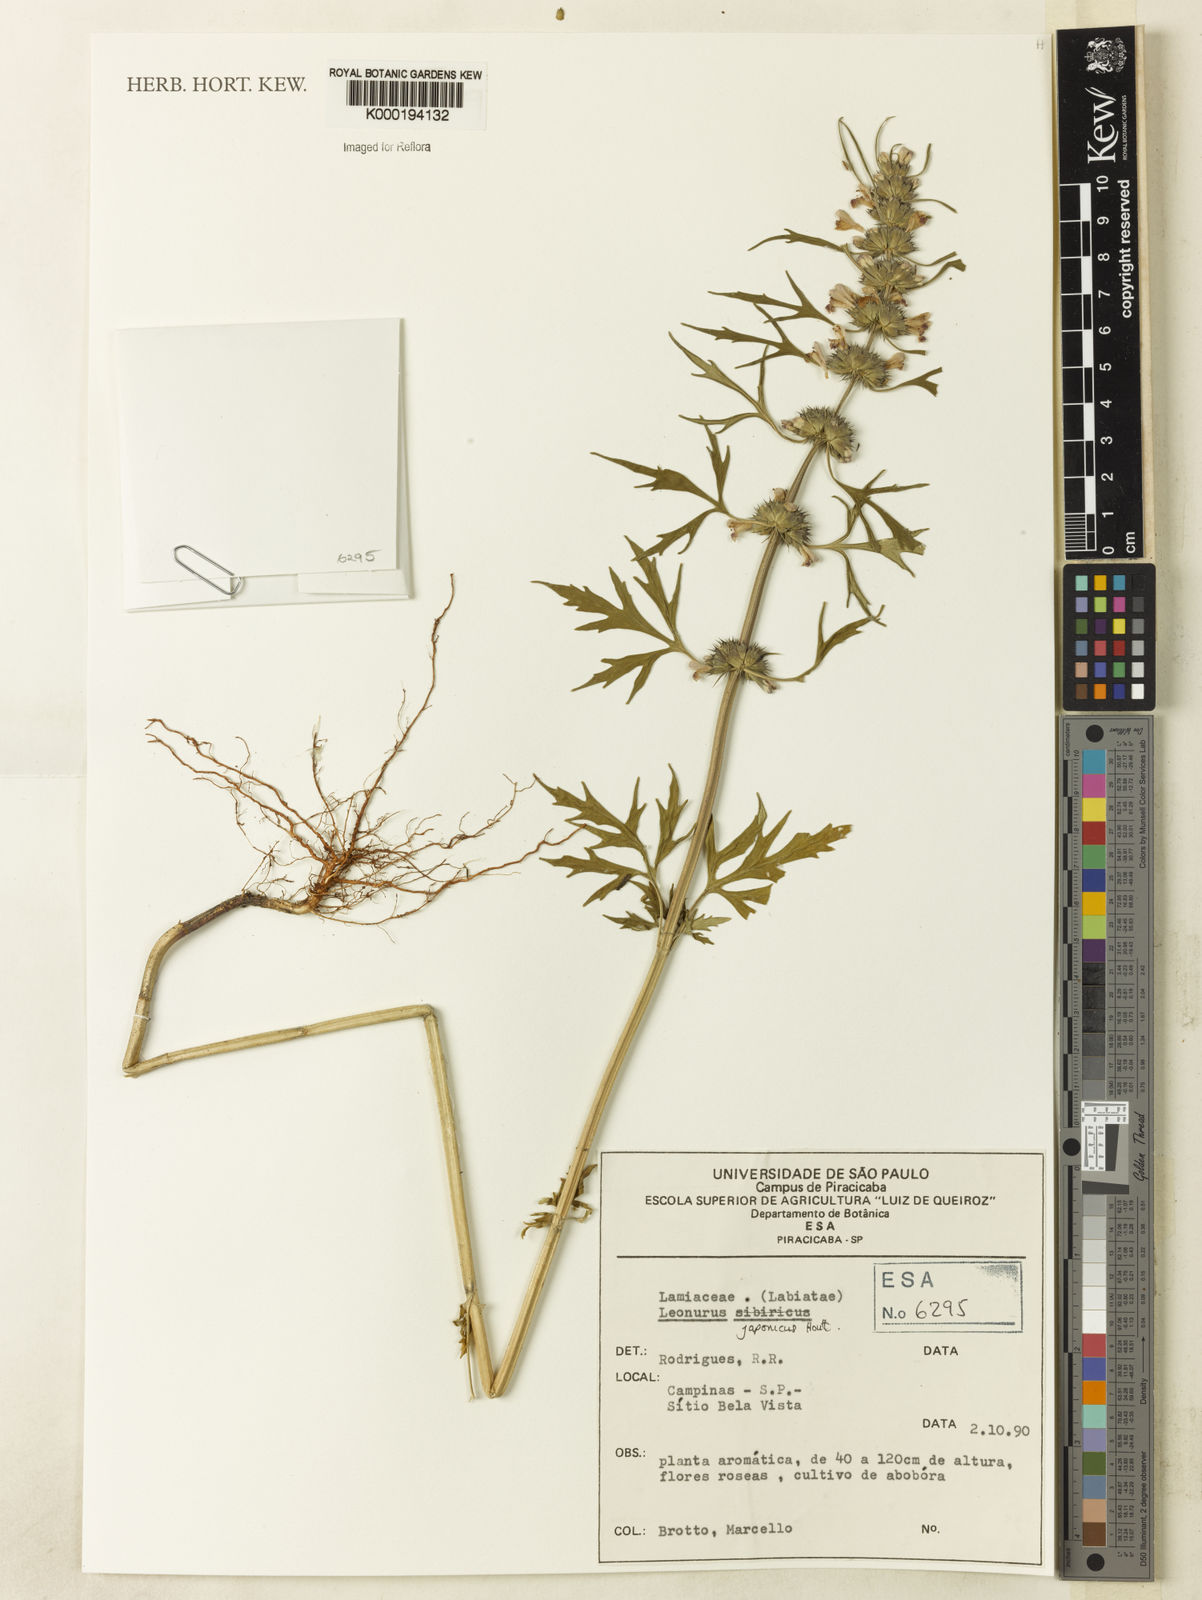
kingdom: Plantae
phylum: Tracheophyta
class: Magnoliopsida
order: Lamiales
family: Lamiaceae
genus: Leonurus
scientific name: Leonurus japonicus
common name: Honeyweed
